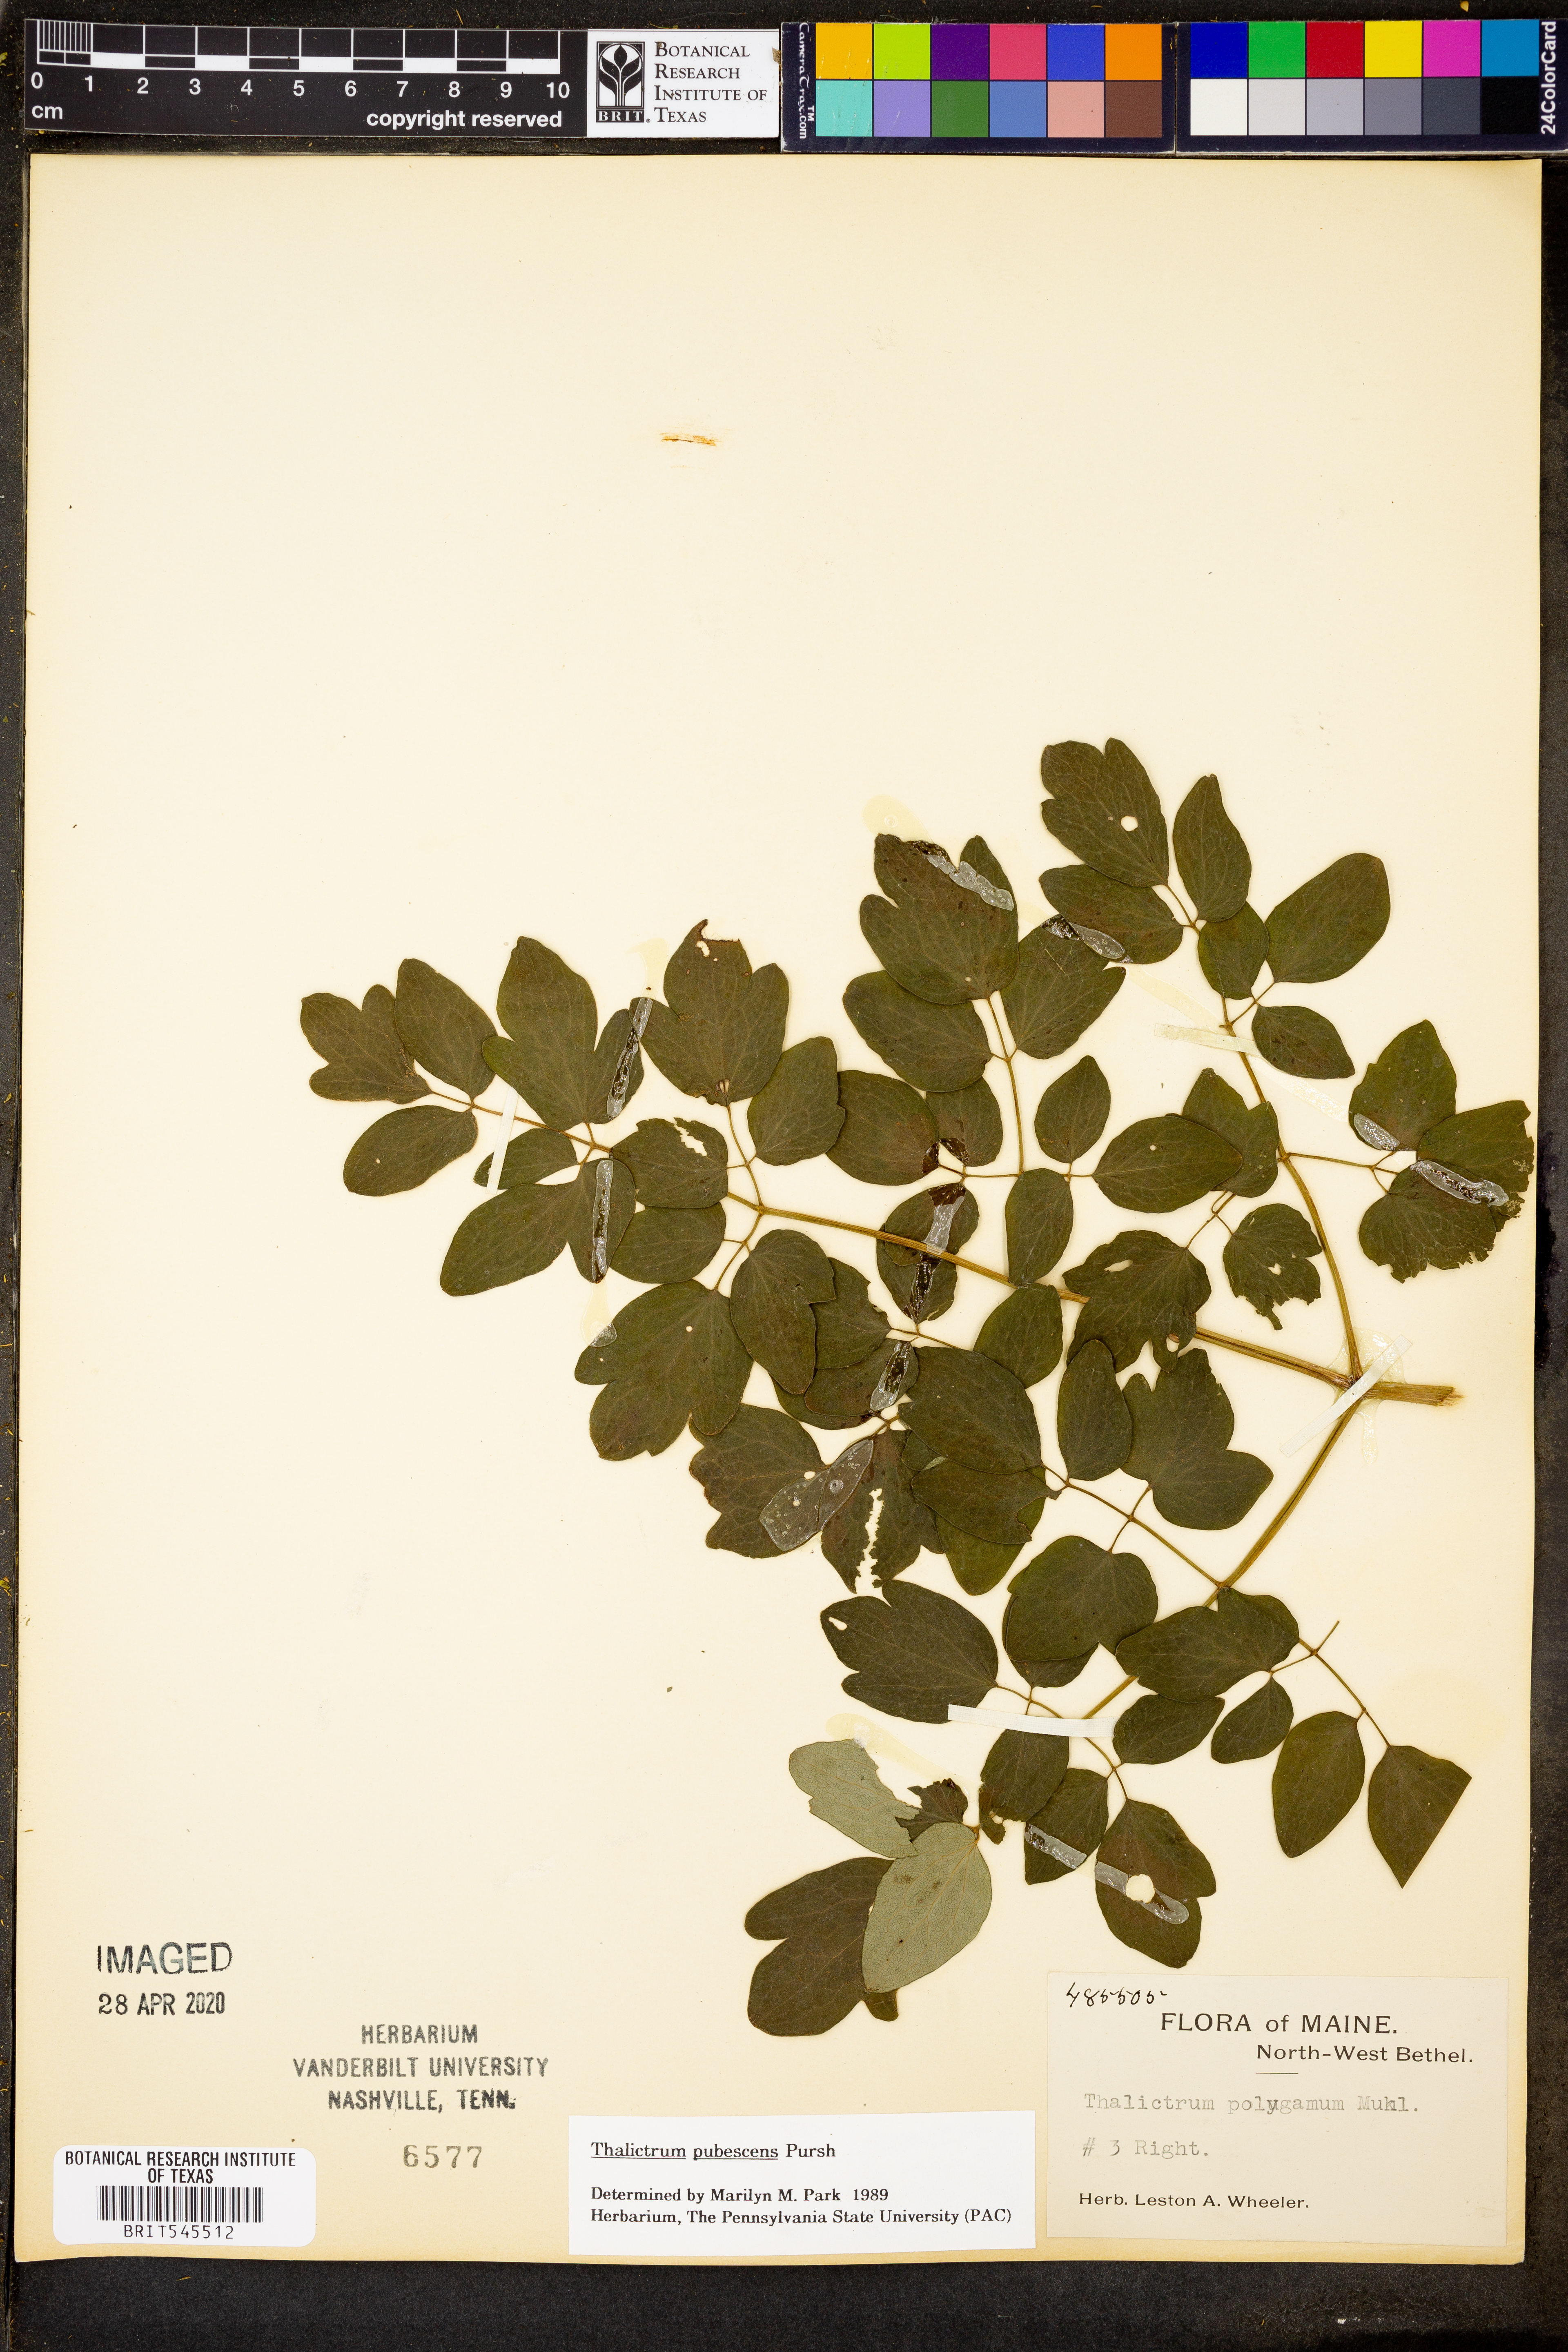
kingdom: Plantae
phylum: Tracheophyta
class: Magnoliopsida
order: Ranunculales
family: Ranunculaceae
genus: Thalictrum
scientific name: Thalictrum pubescens
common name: King-of-the-meadow
